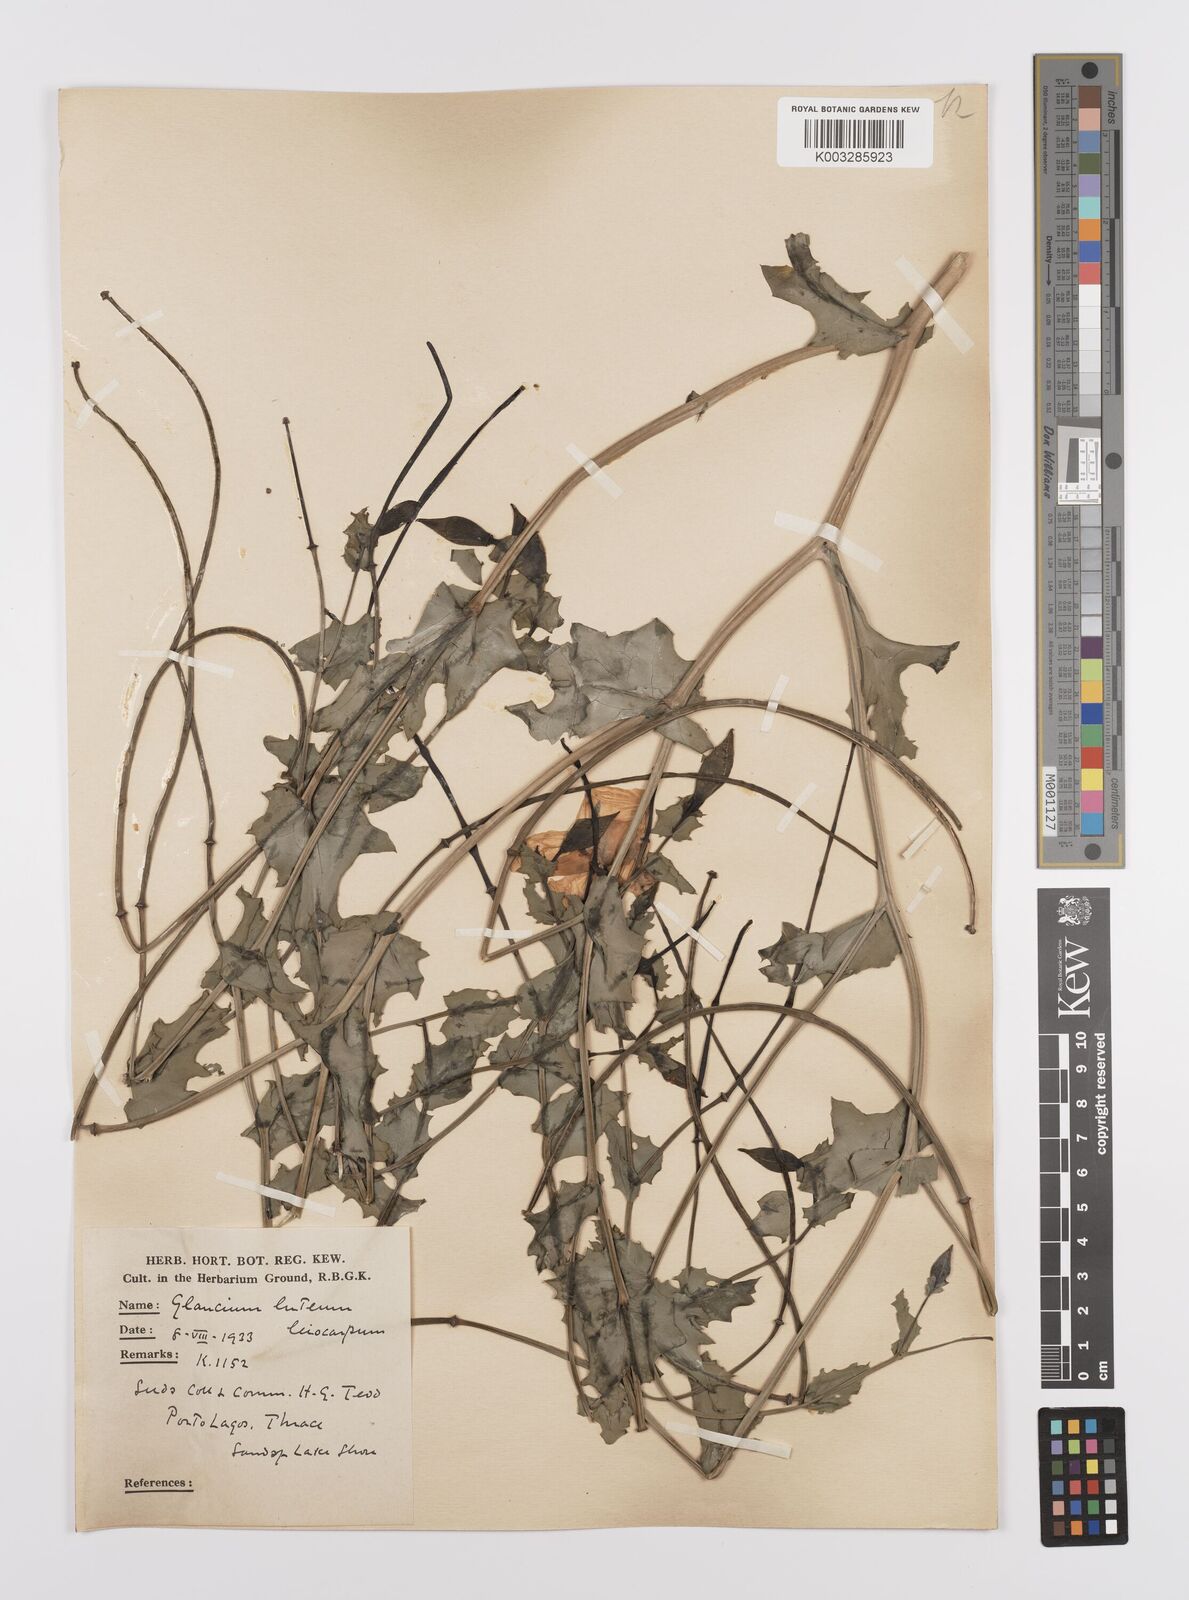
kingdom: Plantae
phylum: Tracheophyta
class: Magnoliopsida
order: Ranunculales
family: Papaveraceae
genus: Glaucium
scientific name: Glaucium flavum
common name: Yellow horned-poppy
